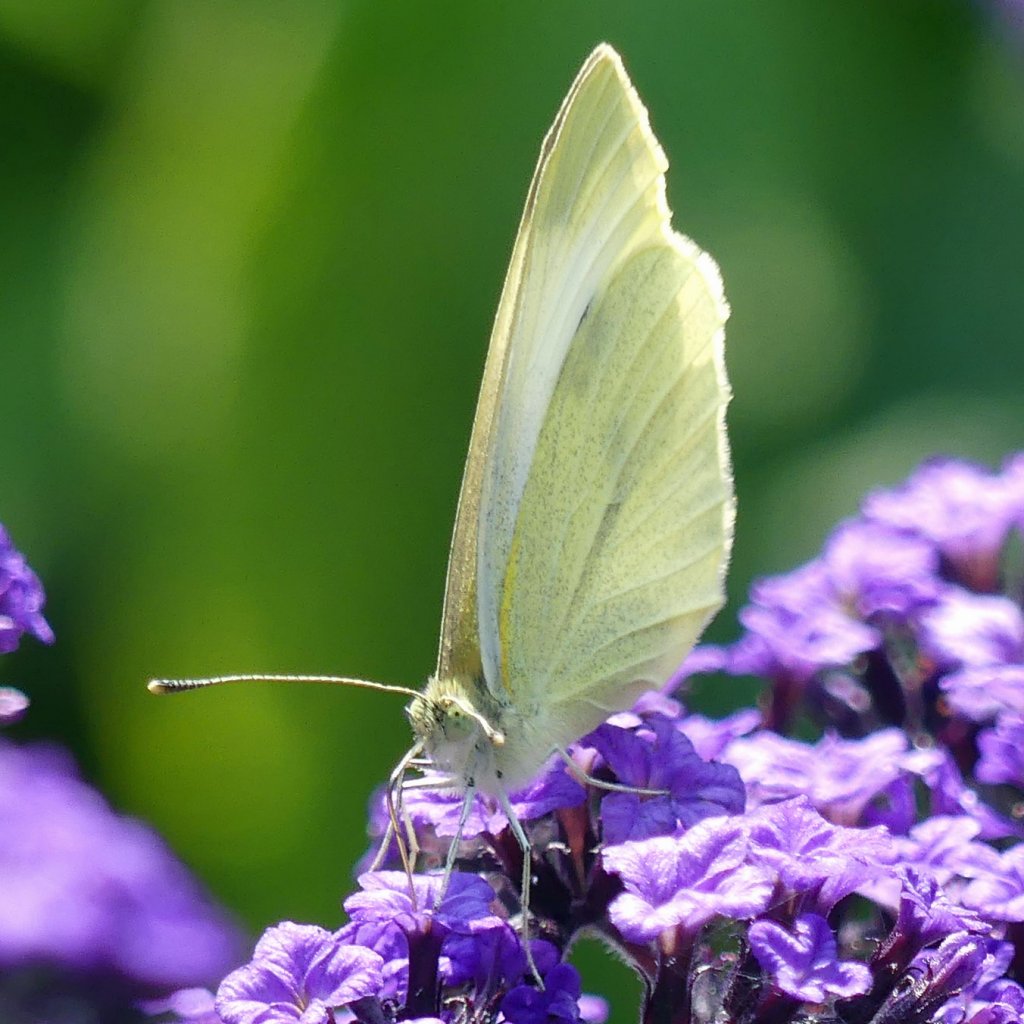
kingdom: Animalia
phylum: Arthropoda
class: Insecta
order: Lepidoptera
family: Pieridae
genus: Pieris
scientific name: Pieris rapae
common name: Cabbage White
